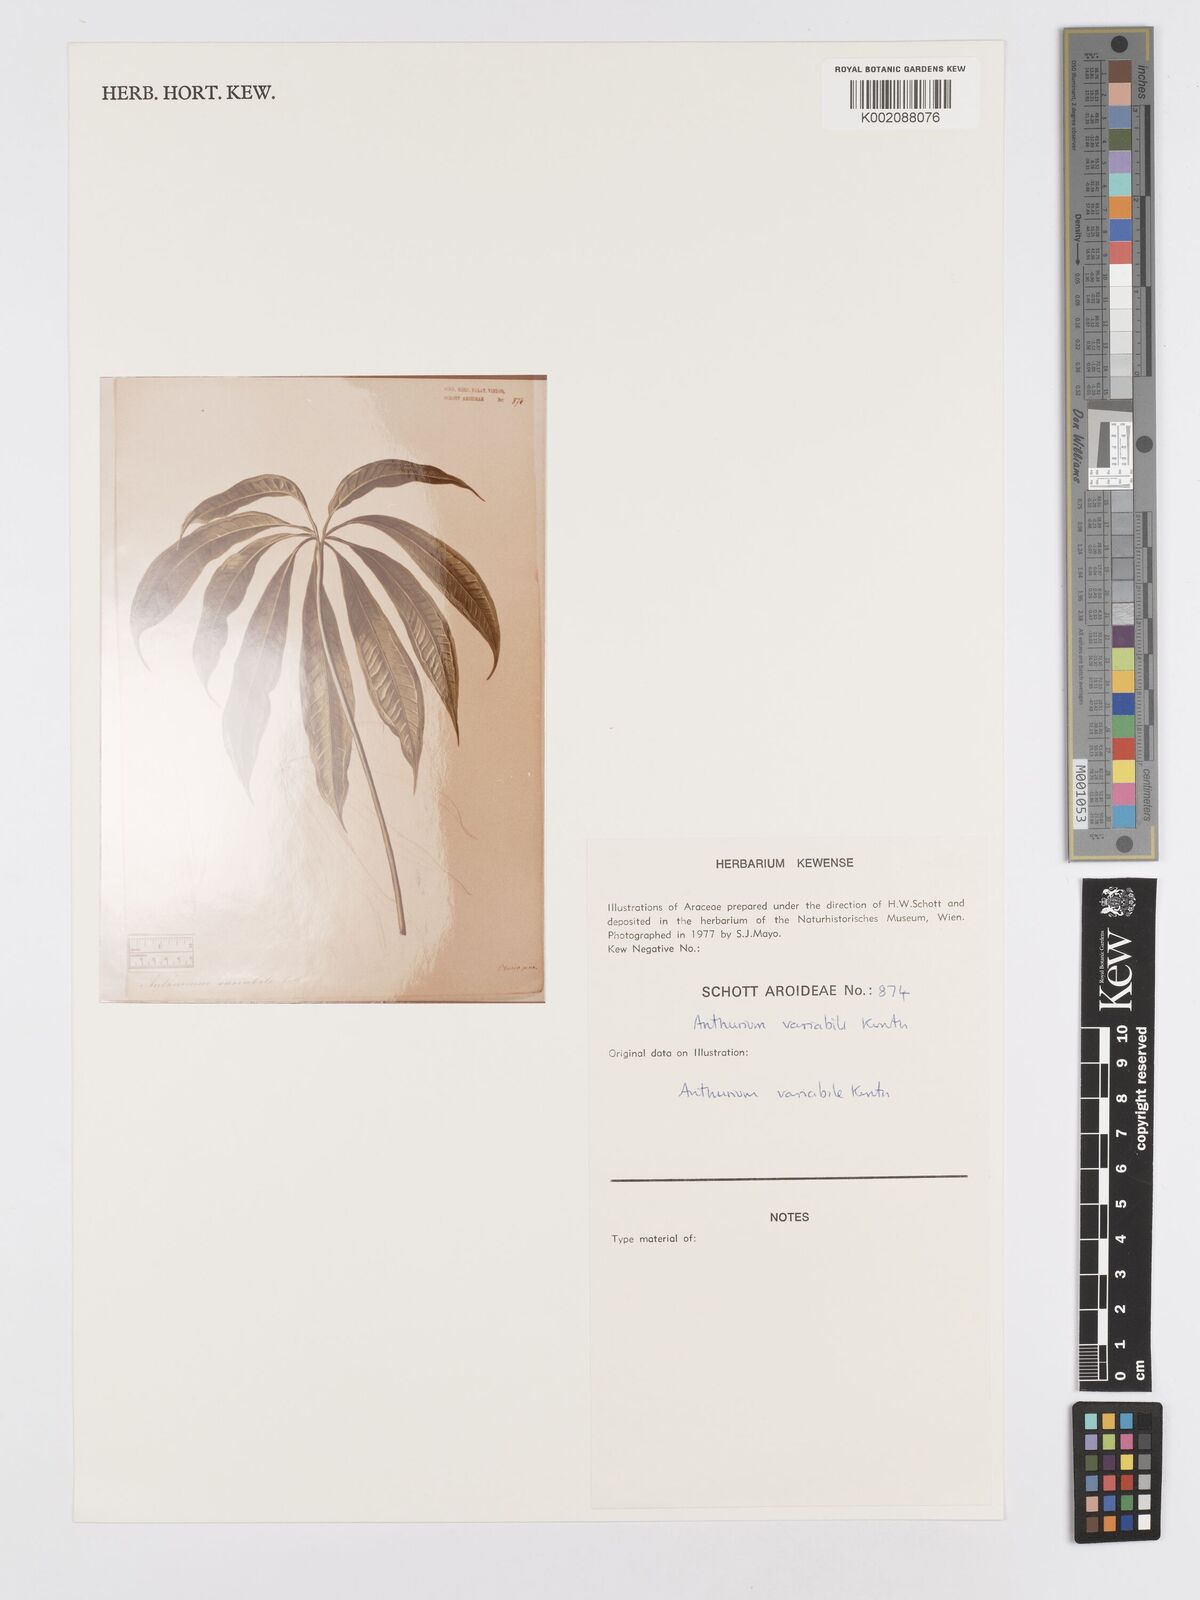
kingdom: Plantae
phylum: Tracheophyta
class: Liliopsida
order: Alismatales
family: Araceae
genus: Anthurium
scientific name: Anthurium pentaphyllum
